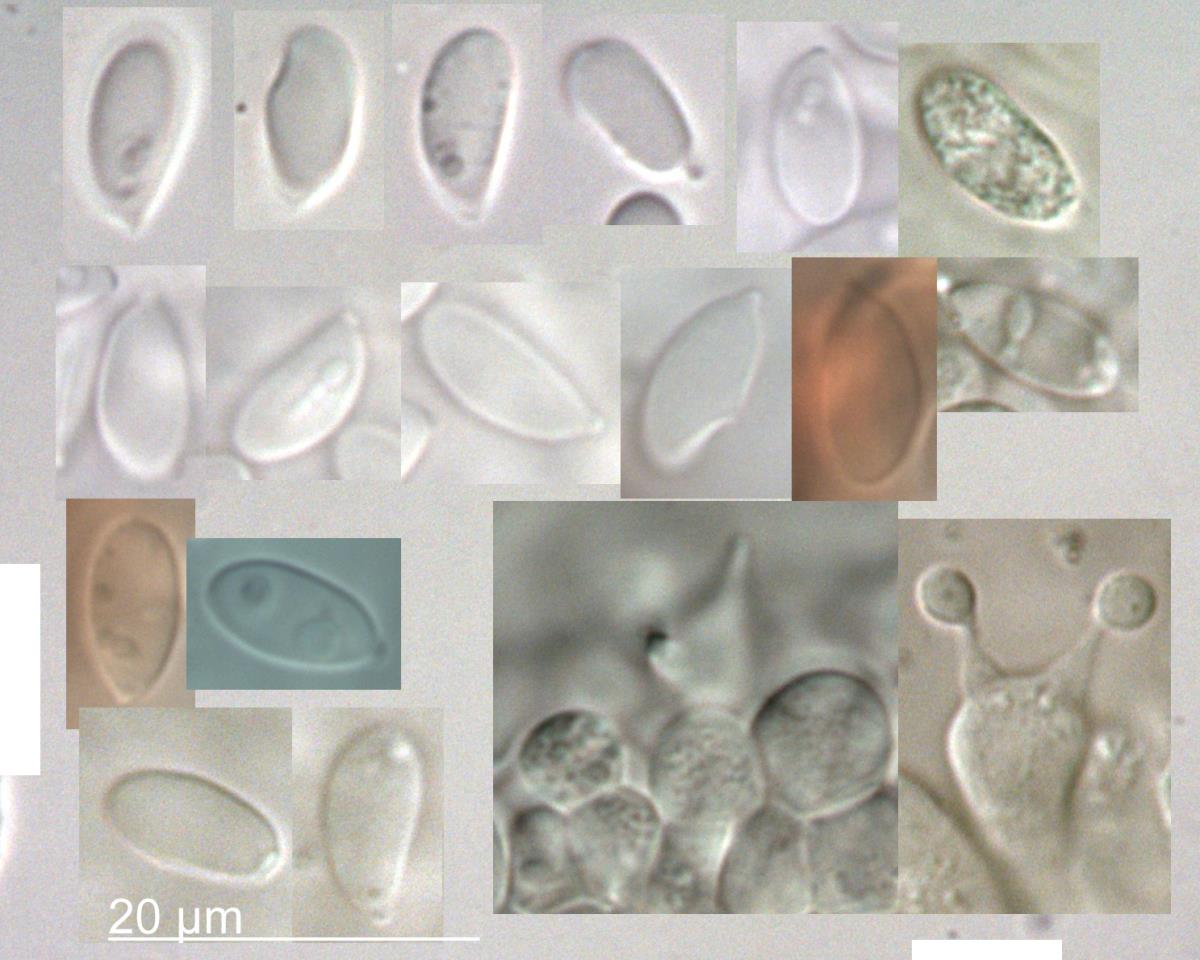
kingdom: Fungi
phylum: Basidiomycota
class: Agaricomycetes
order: Agaricales
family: Mycenaceae
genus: Mycena
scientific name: Mycena metata
